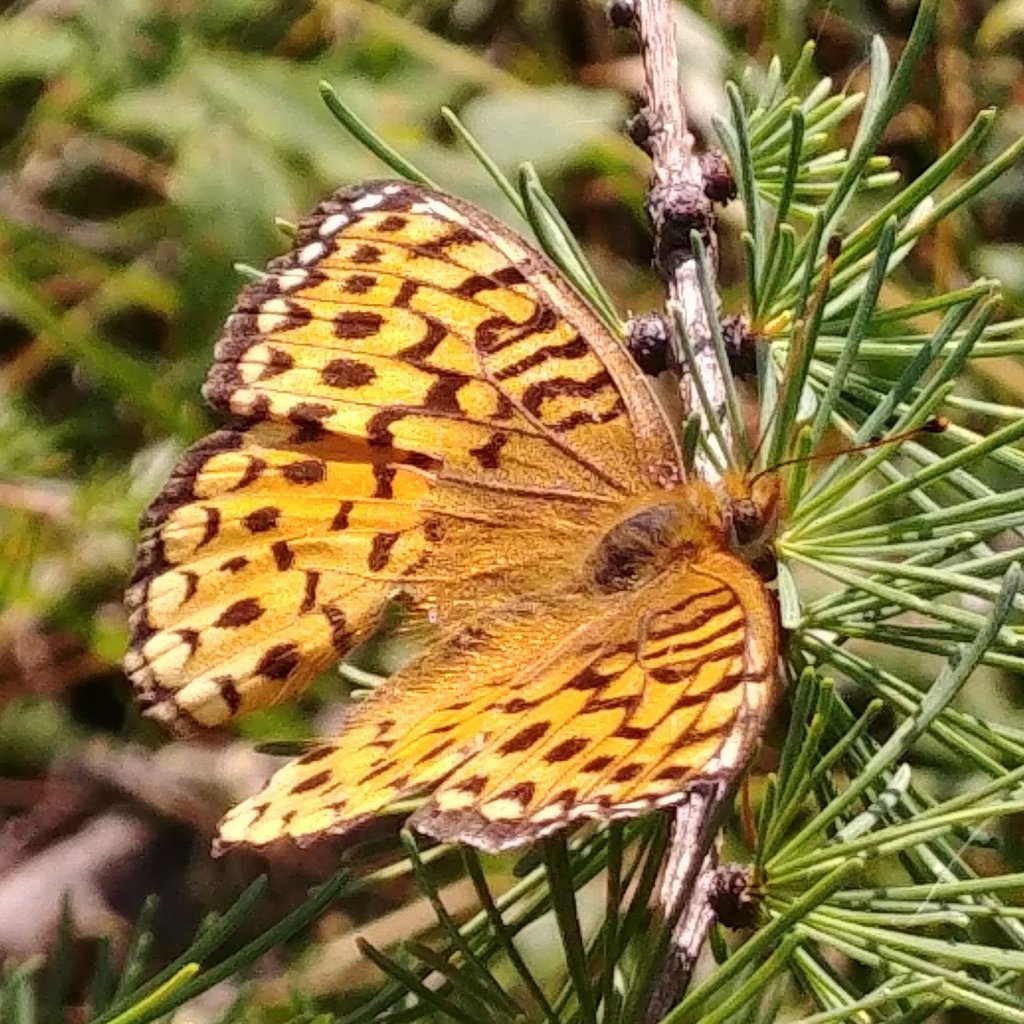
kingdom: Animalia
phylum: Arthropoda
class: Insecta
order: Lepidoptera
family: Nymphalidae
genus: Speyeria
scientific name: Speyeria atlantis
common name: Atlantis Fritillary
